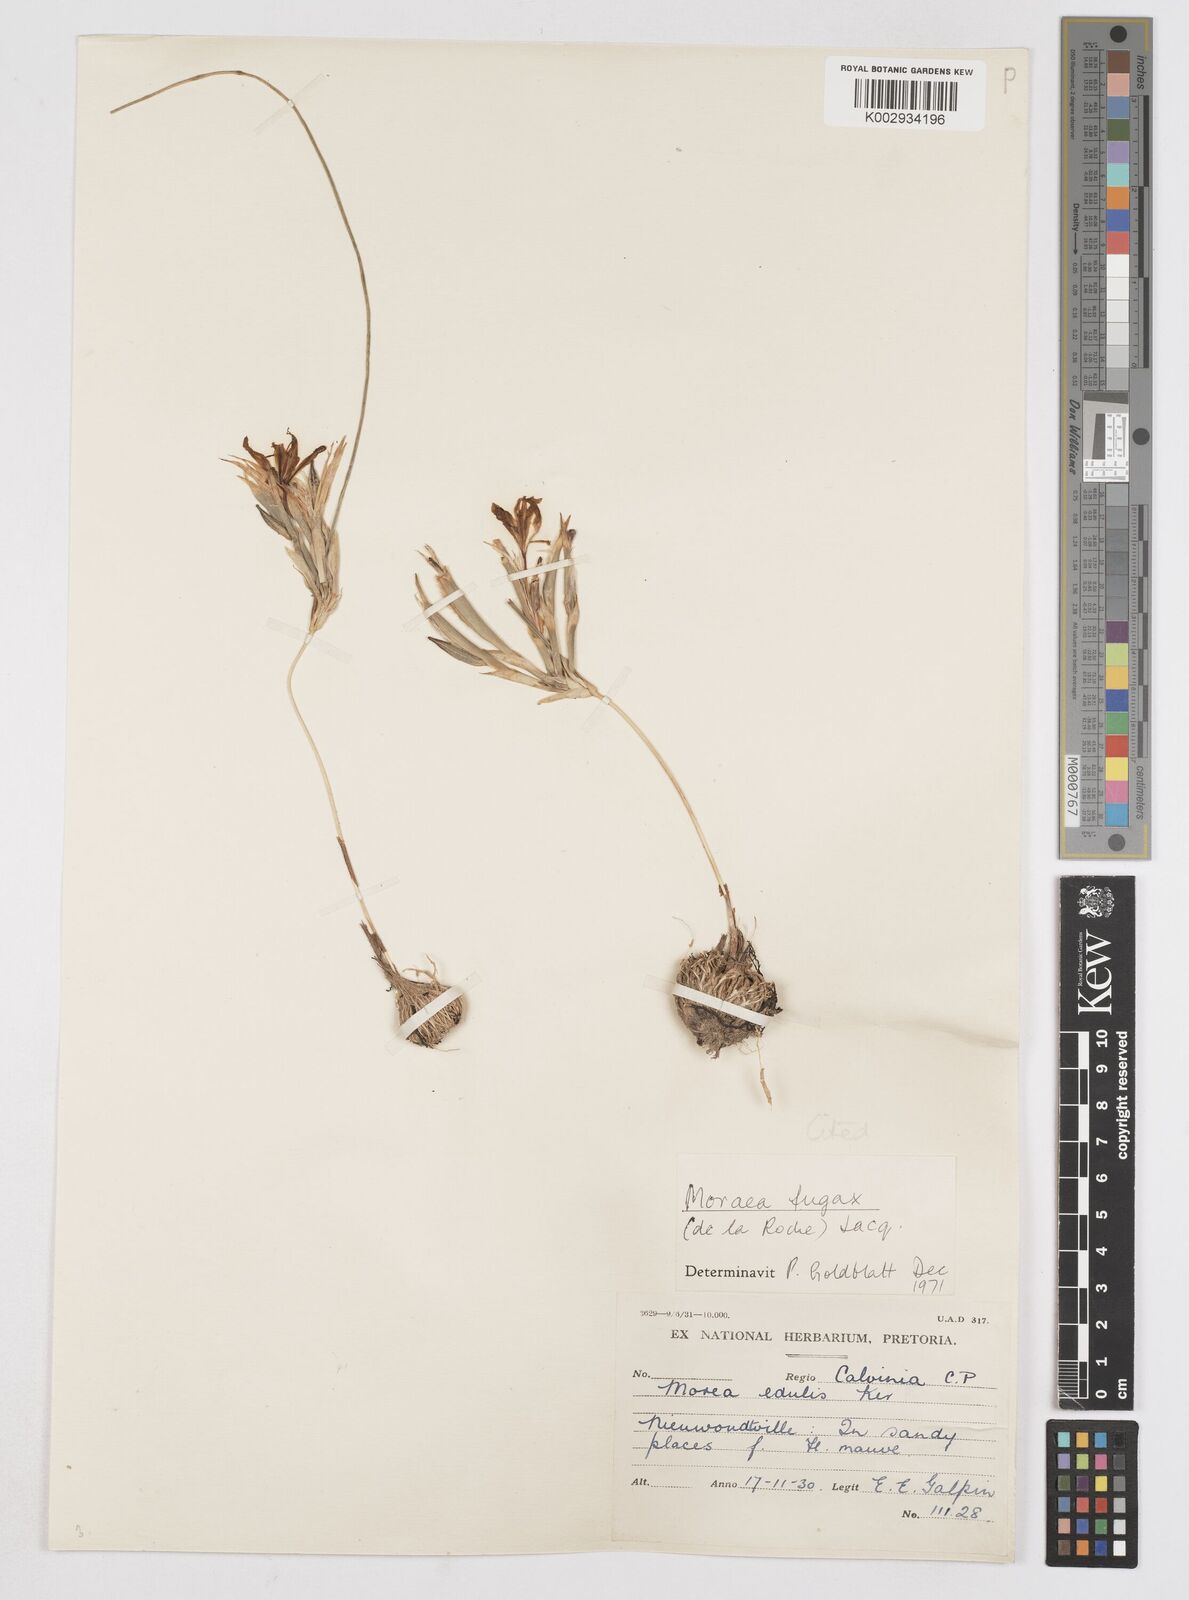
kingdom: Plantae
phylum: Tracheophyta
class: Liliopsida
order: Asparagales
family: Iridaceae
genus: Moraea
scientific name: Moraea fugax
